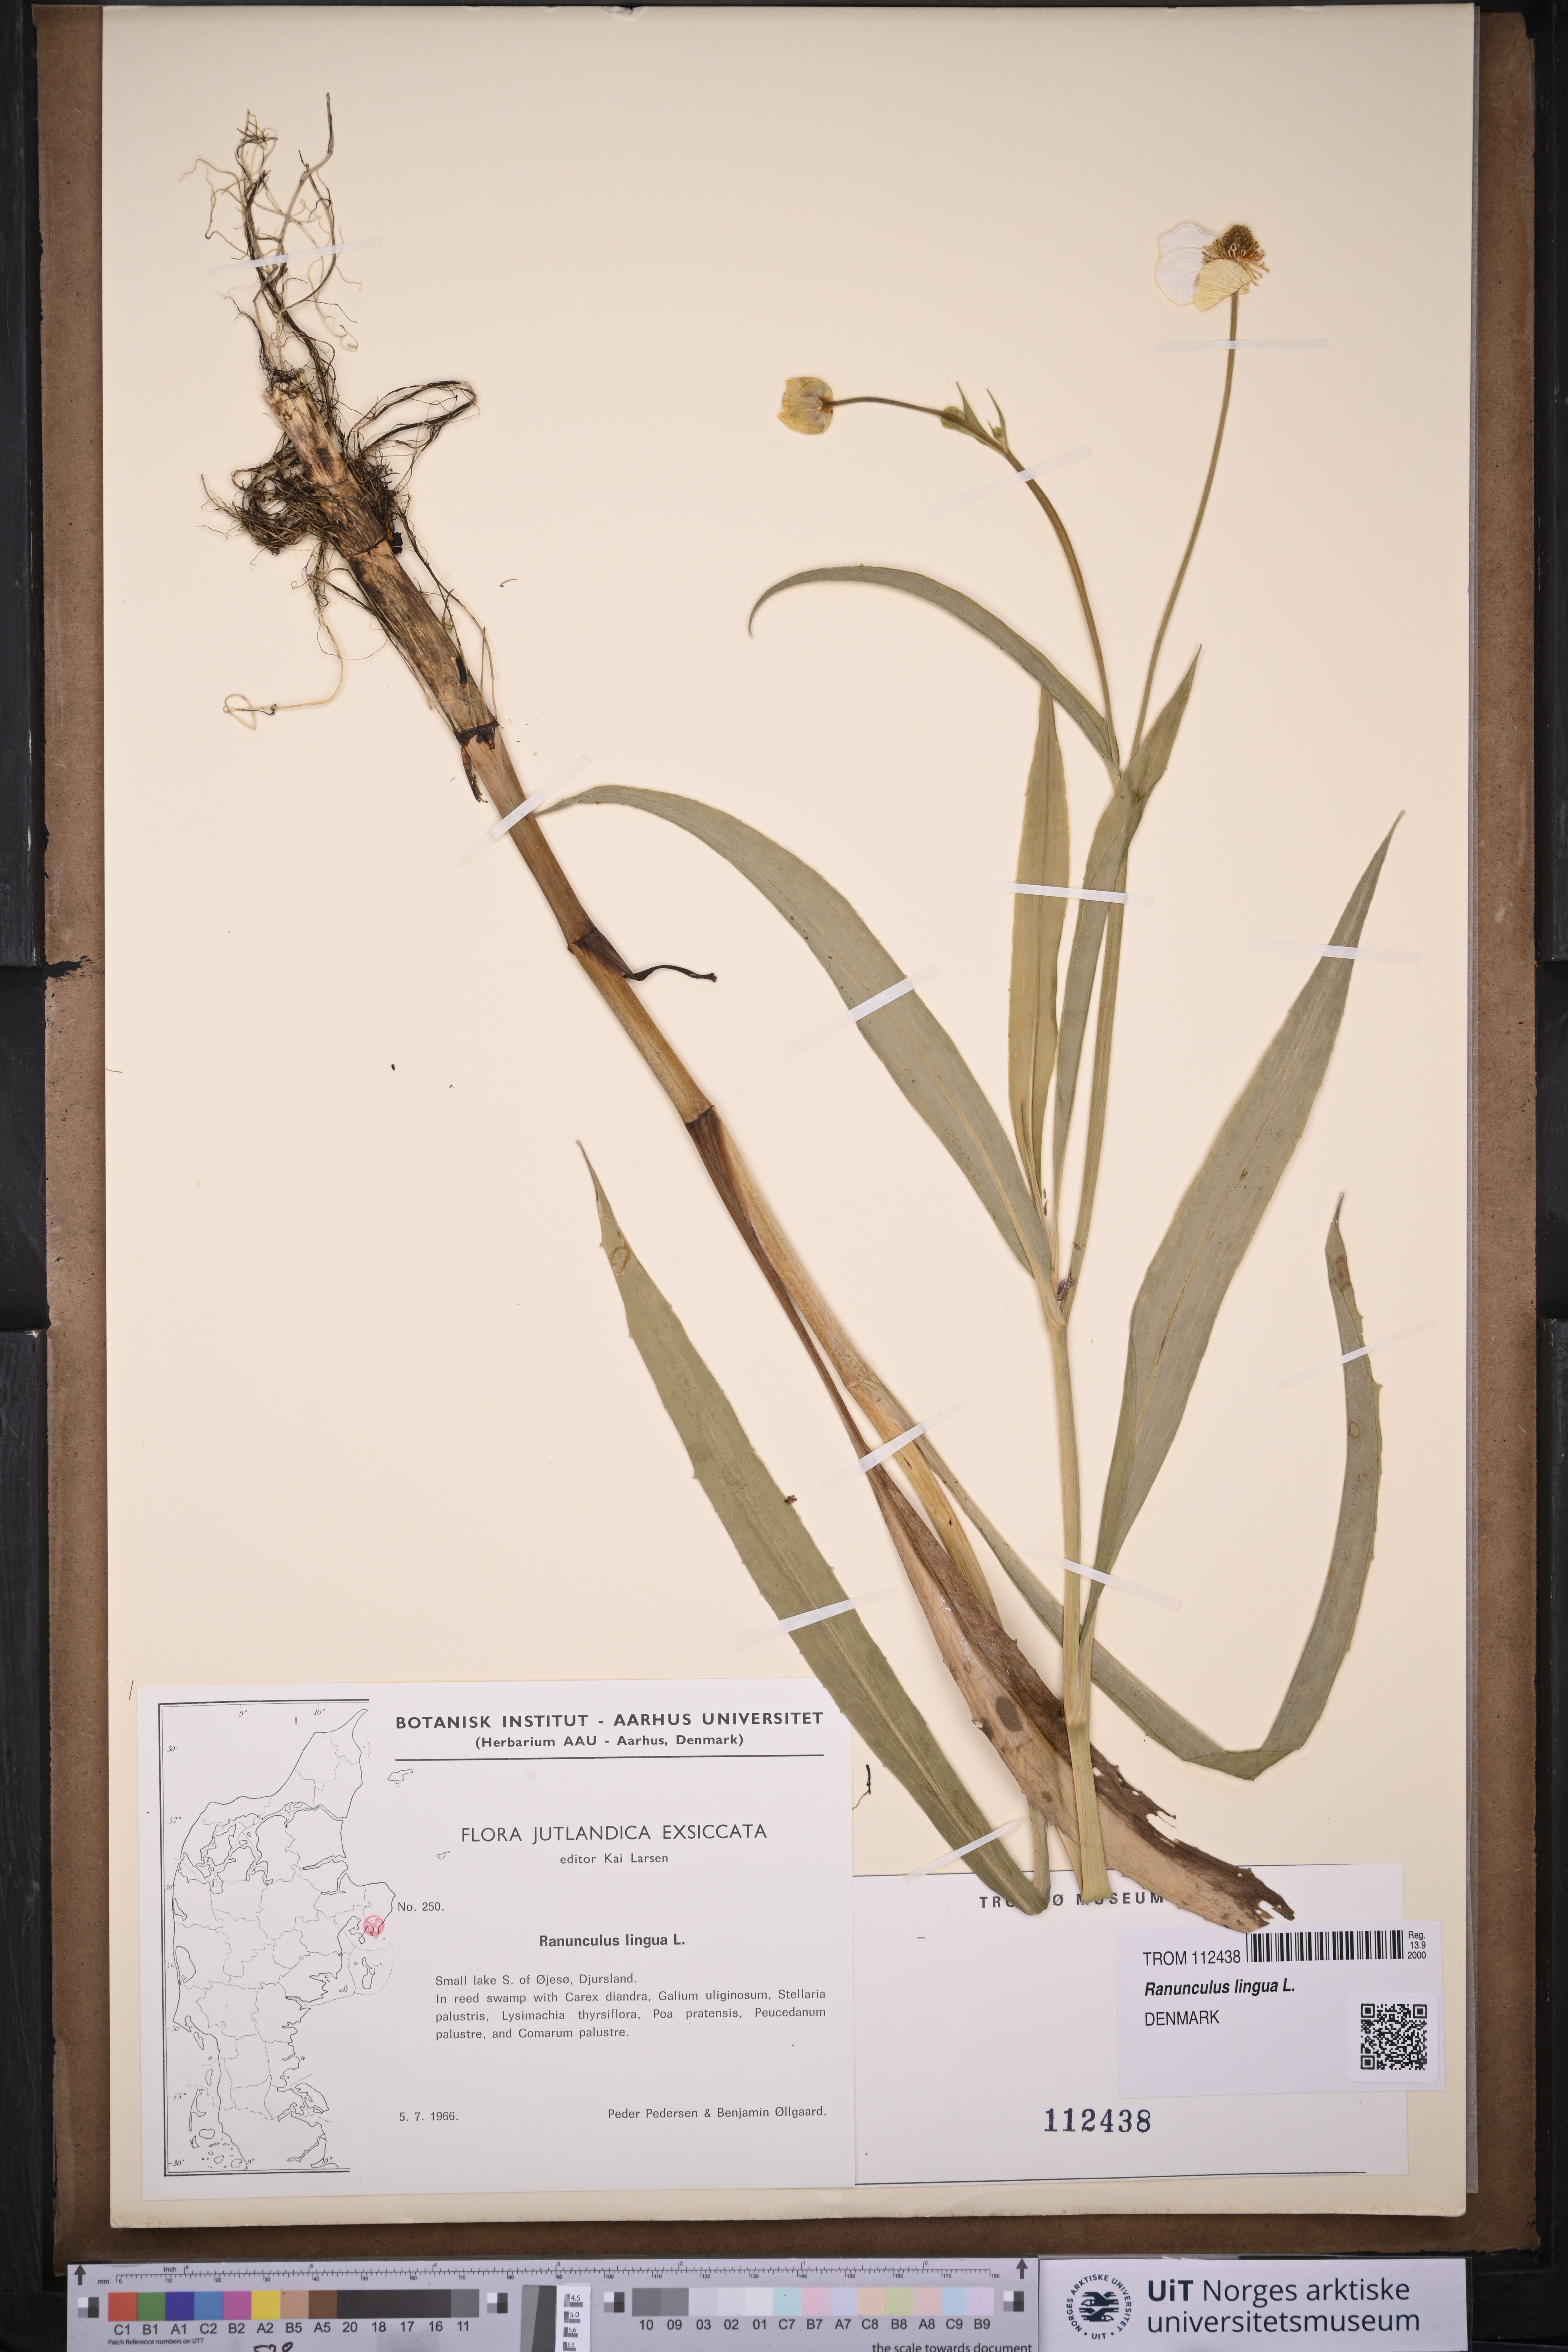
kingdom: Plantae
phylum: Tracheophyta
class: Magnoliopsida
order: Ranunculales
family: Ranunculaceae
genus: Ranunculus
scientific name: Ranunculus lingua
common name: Greater spearwort
